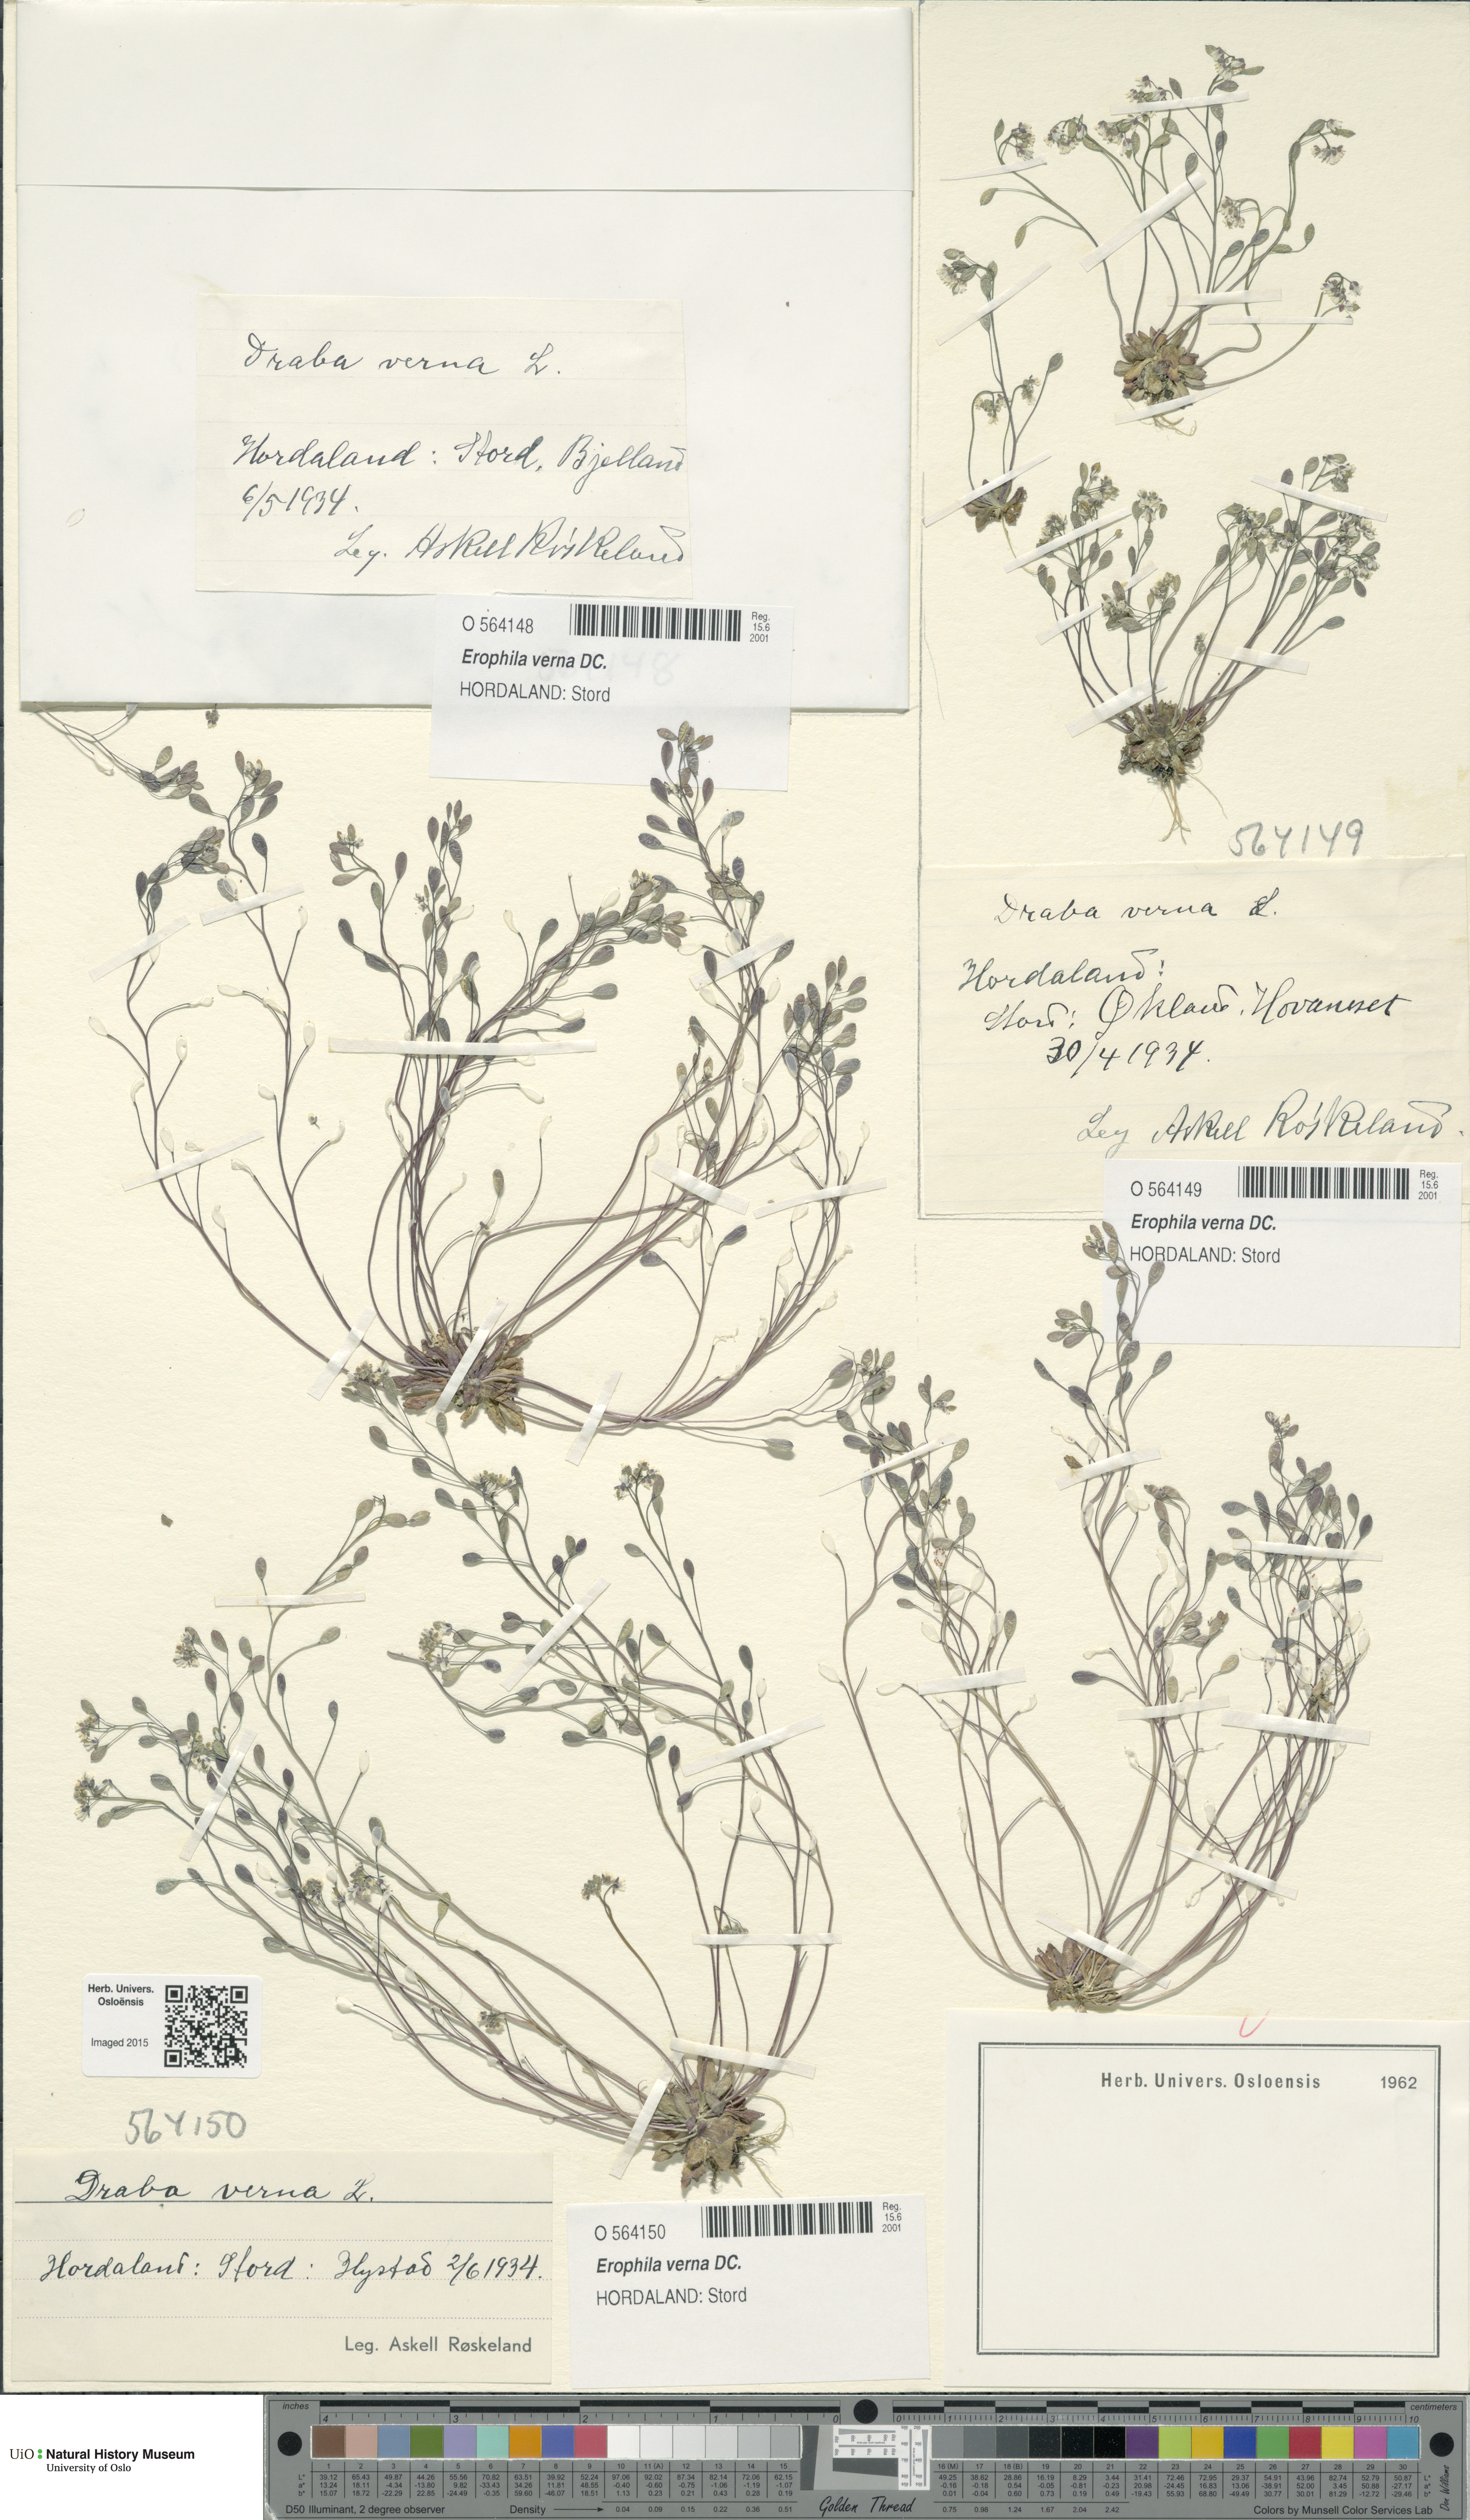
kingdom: Plantae
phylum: Tracheophyta
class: Magnoliopsida
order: Brassicales
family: Brassicaceae
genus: Draba
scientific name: Draba verna
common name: Spring draba
